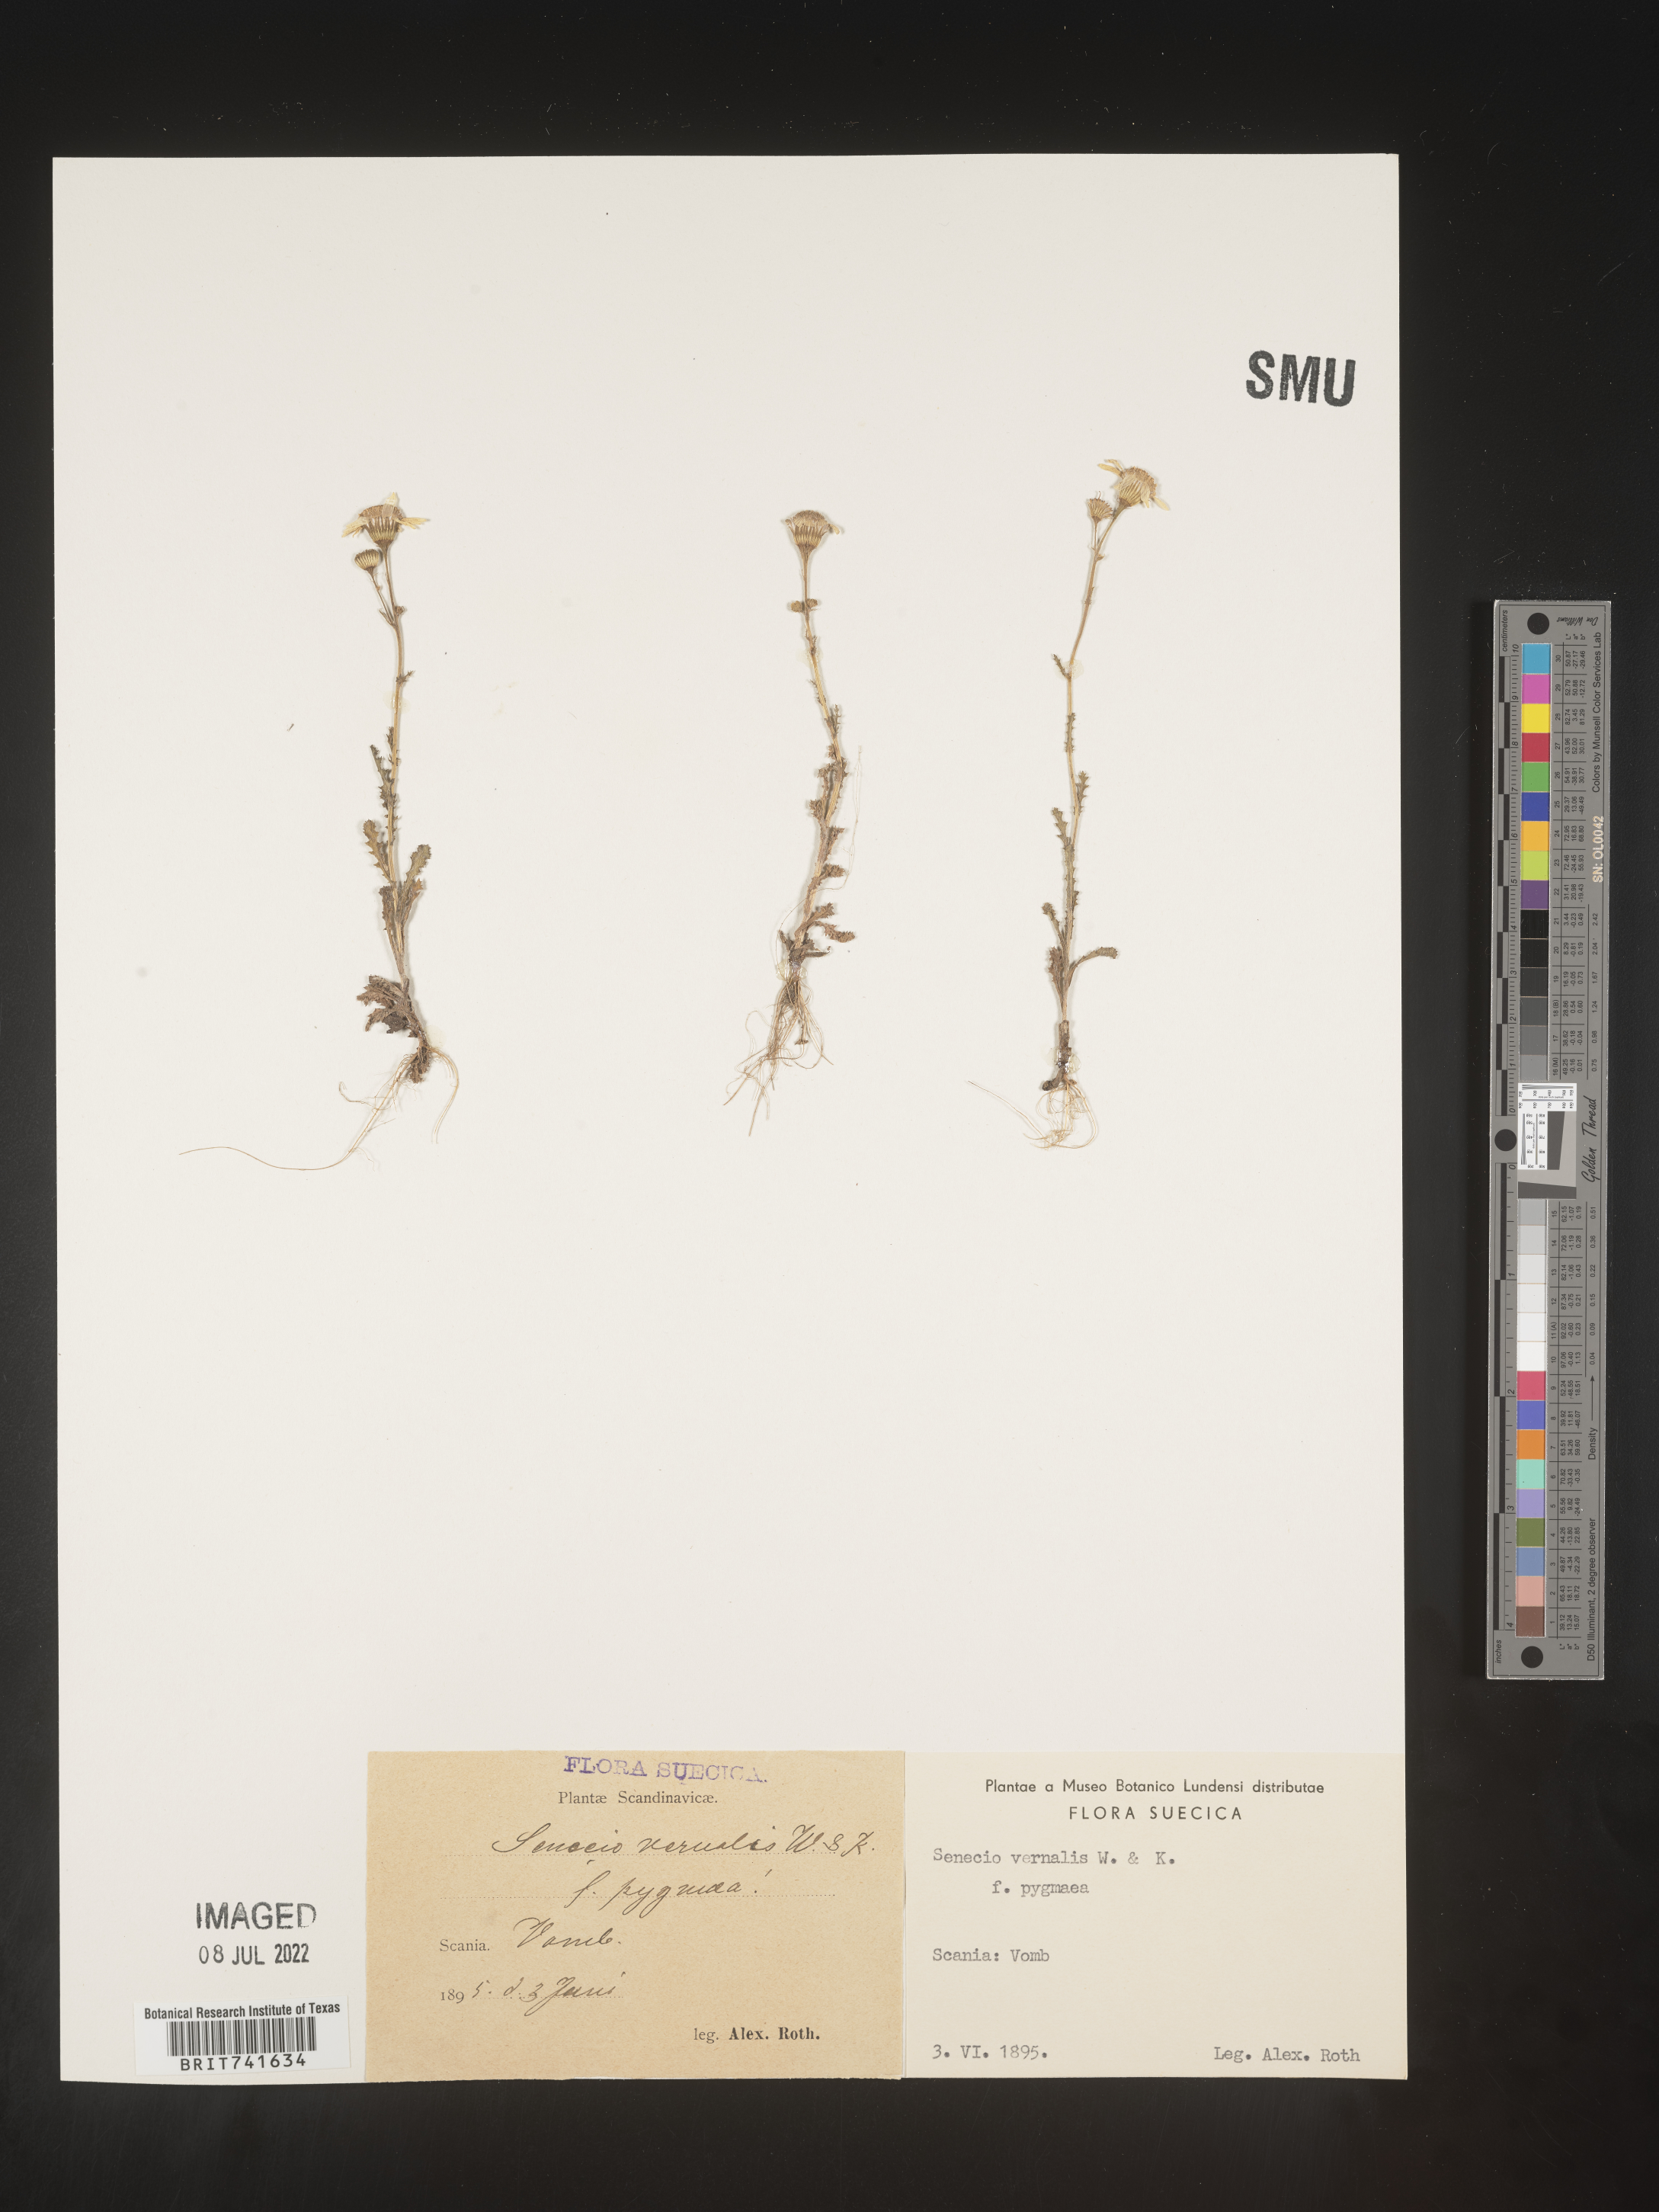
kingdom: Plantae
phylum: Tracheophyta
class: Magnoliopsida
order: Asterales
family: Asteraceae
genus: Senecio
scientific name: Senecio vernalis
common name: Eastern groundsel
